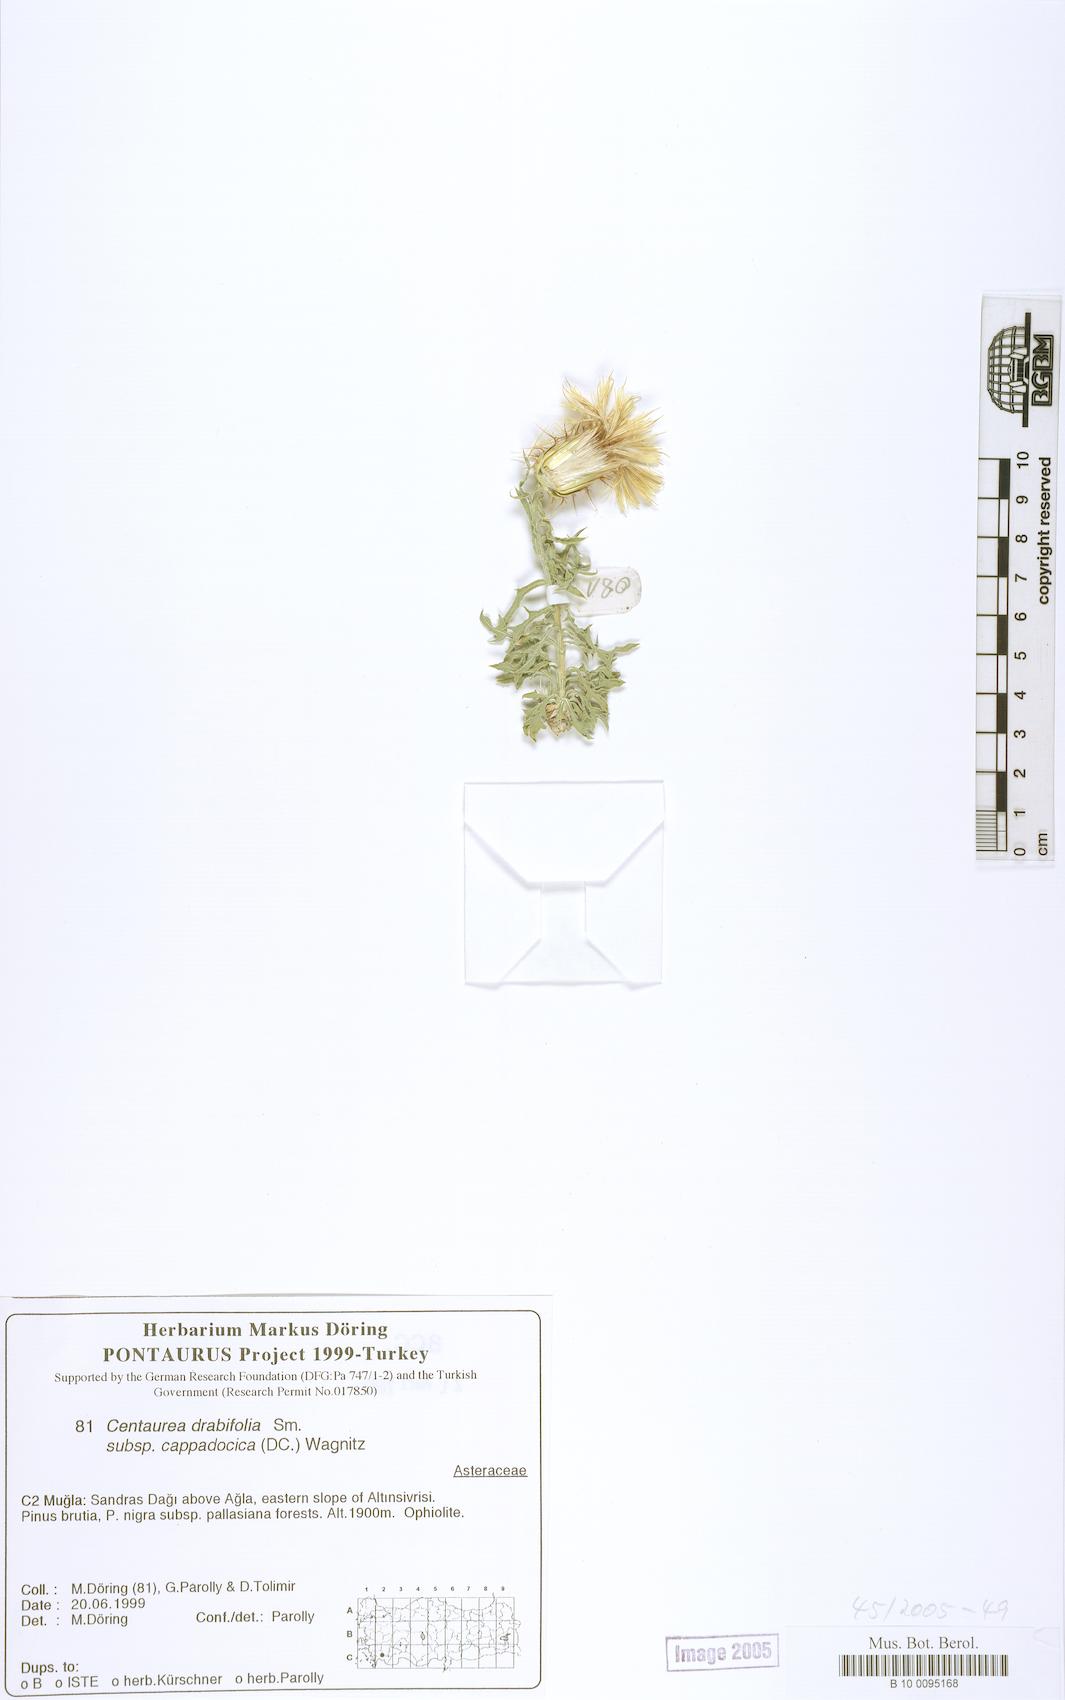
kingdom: Plantae
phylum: Tracheophyta
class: Magnoliopsida
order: Asterales
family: Asteraceae
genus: Centaurea
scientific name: Centaurea drabifolia
